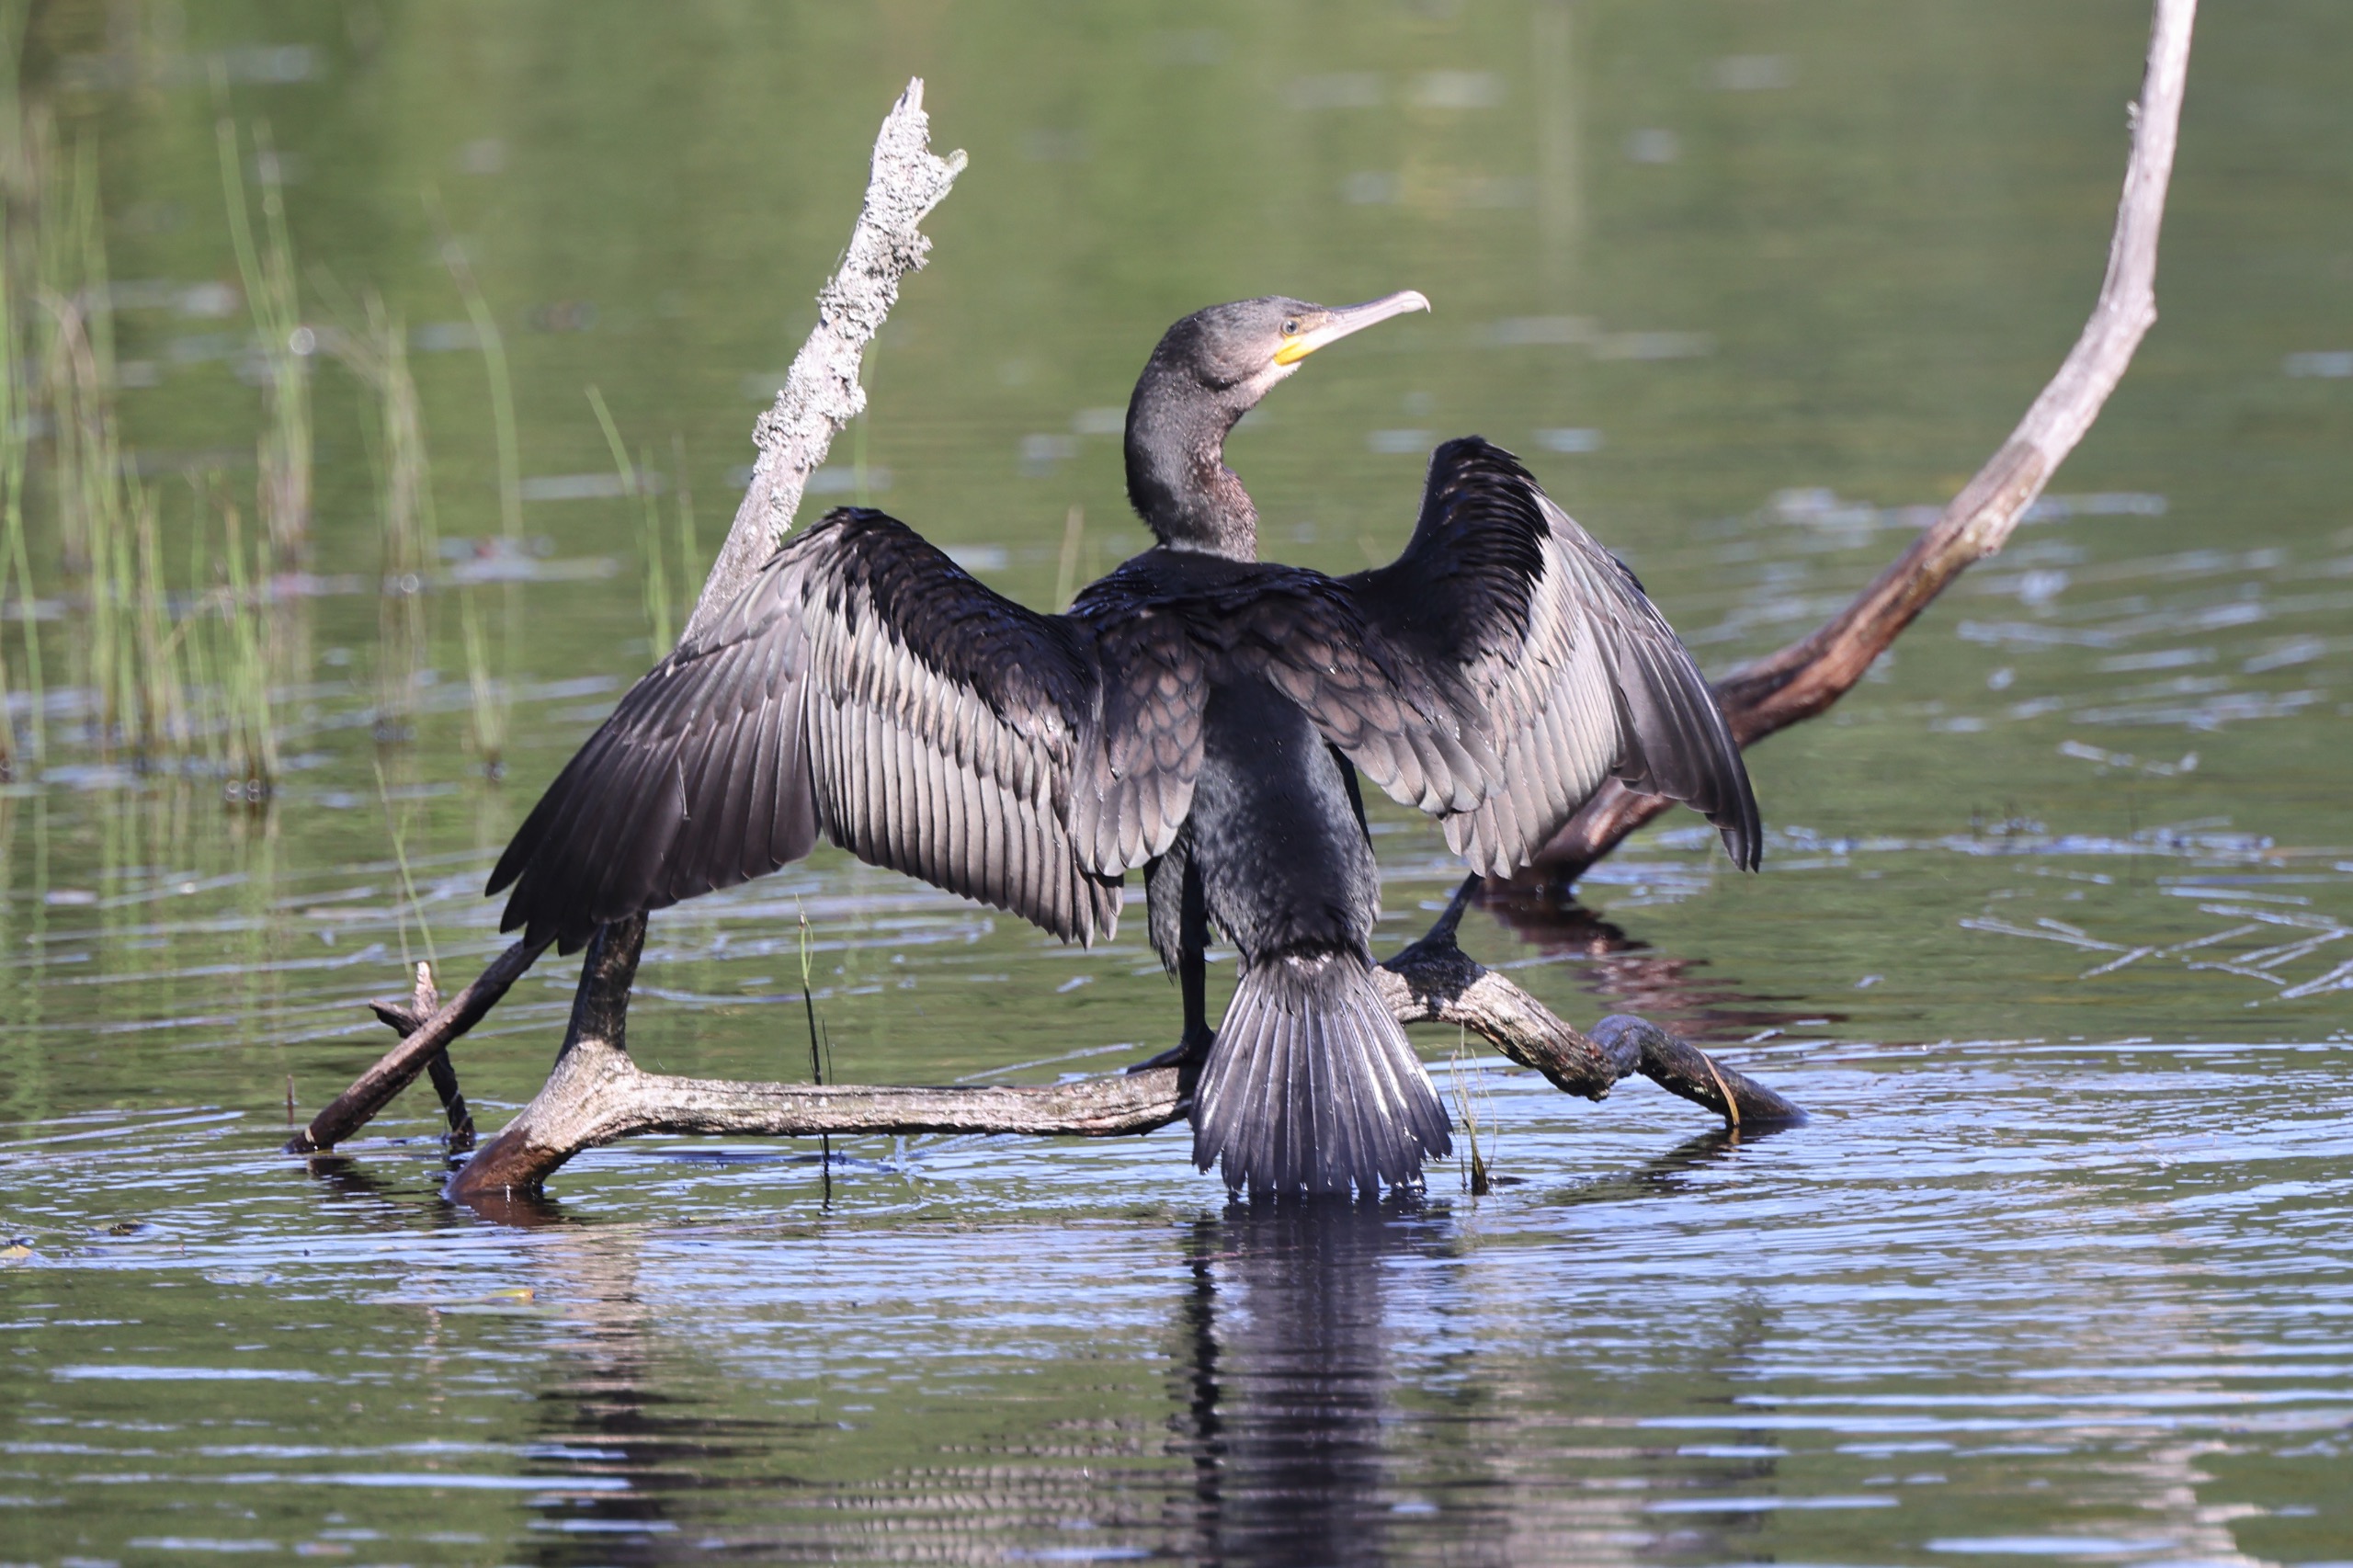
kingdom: Animalia
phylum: Chordata
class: Aves
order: Suliformes
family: Phalacrocoracidae
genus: Phalacrocorax
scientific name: Phalacrocorax carbo
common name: Skarv
